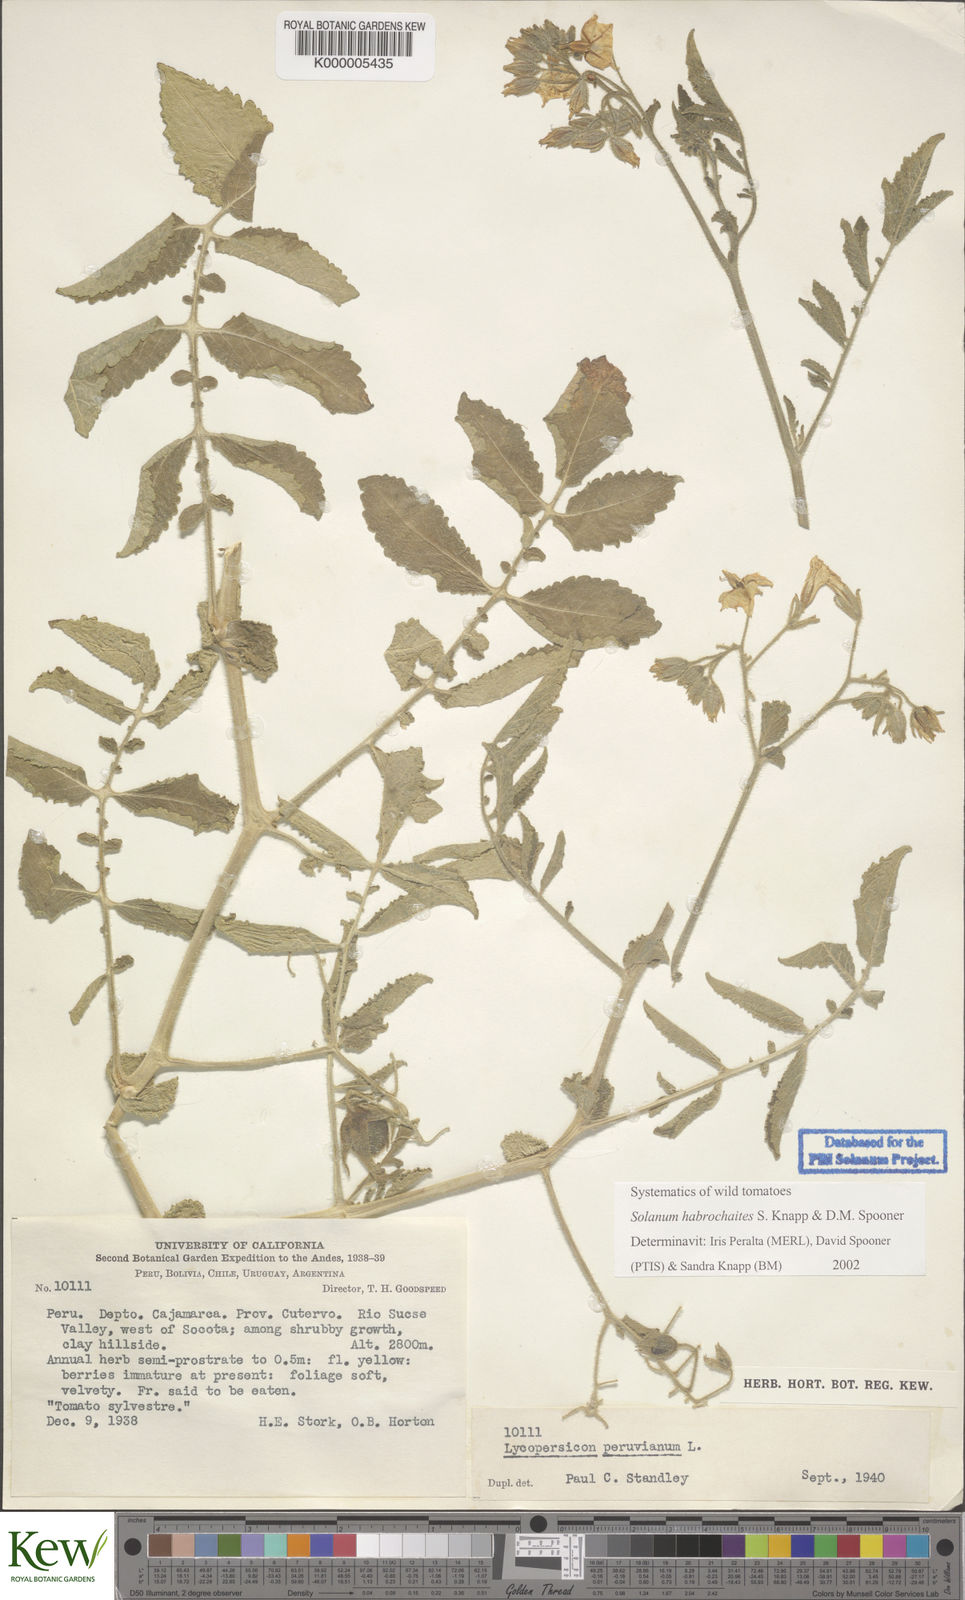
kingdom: Plantae
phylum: Tracheophyta
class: Magnoliopsida
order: Solanales
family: Solanaceae
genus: Solanum
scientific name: Solanum habrochaites
